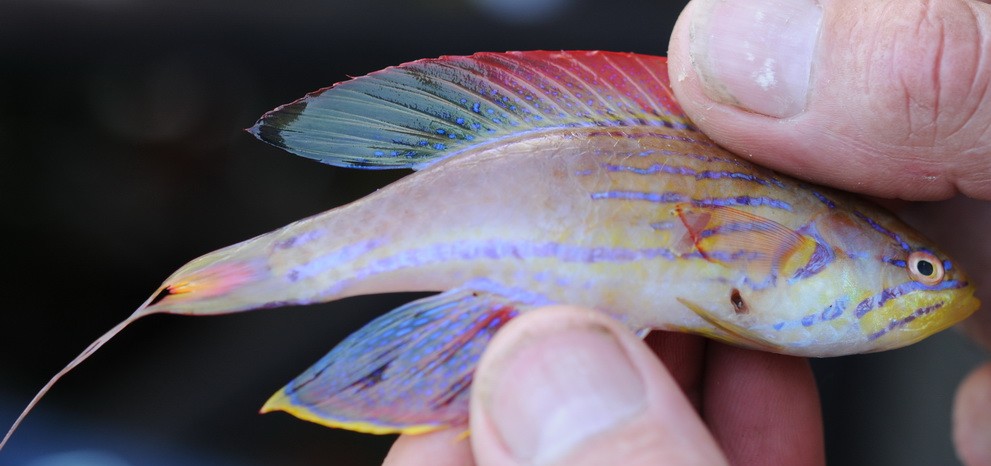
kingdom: Animalia
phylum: Chordata
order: Perciformes
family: Labridae
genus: Paracheilinus
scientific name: Paracheilinus
